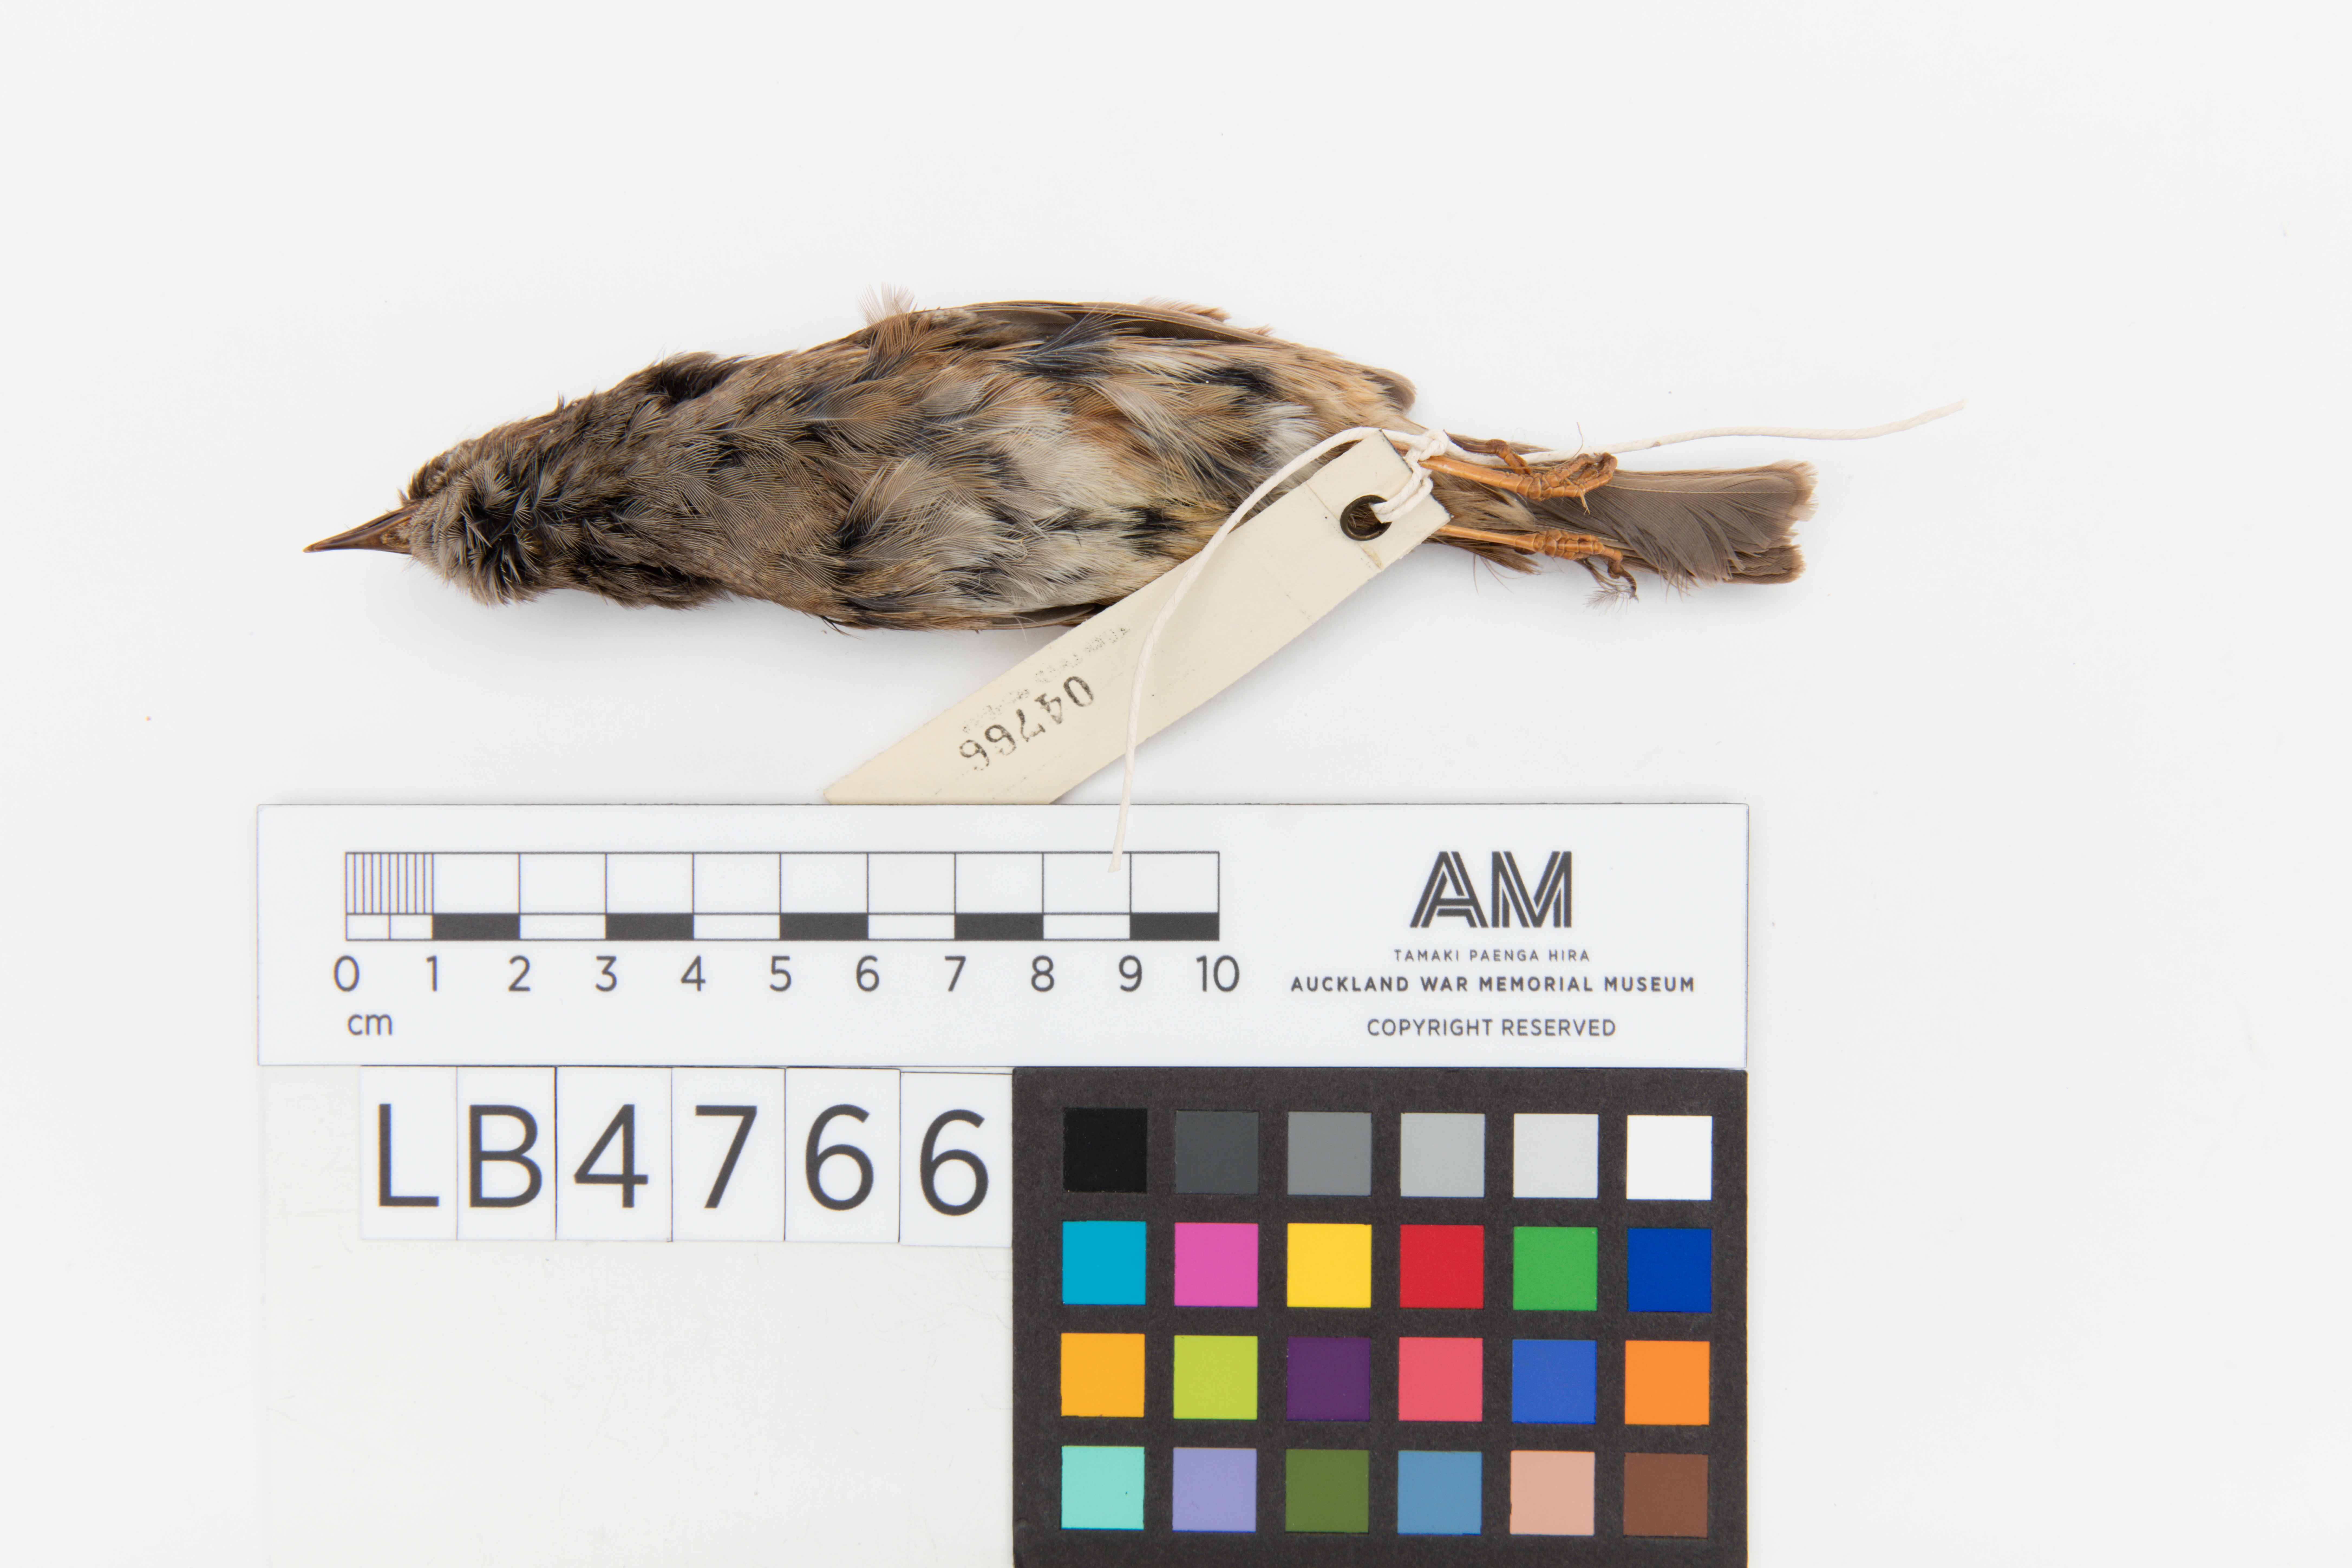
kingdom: Animalia
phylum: Chordata
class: Aves
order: Passeriformes
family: Prunellidae
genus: Prunella
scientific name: Prunella modularis
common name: Dunnock
